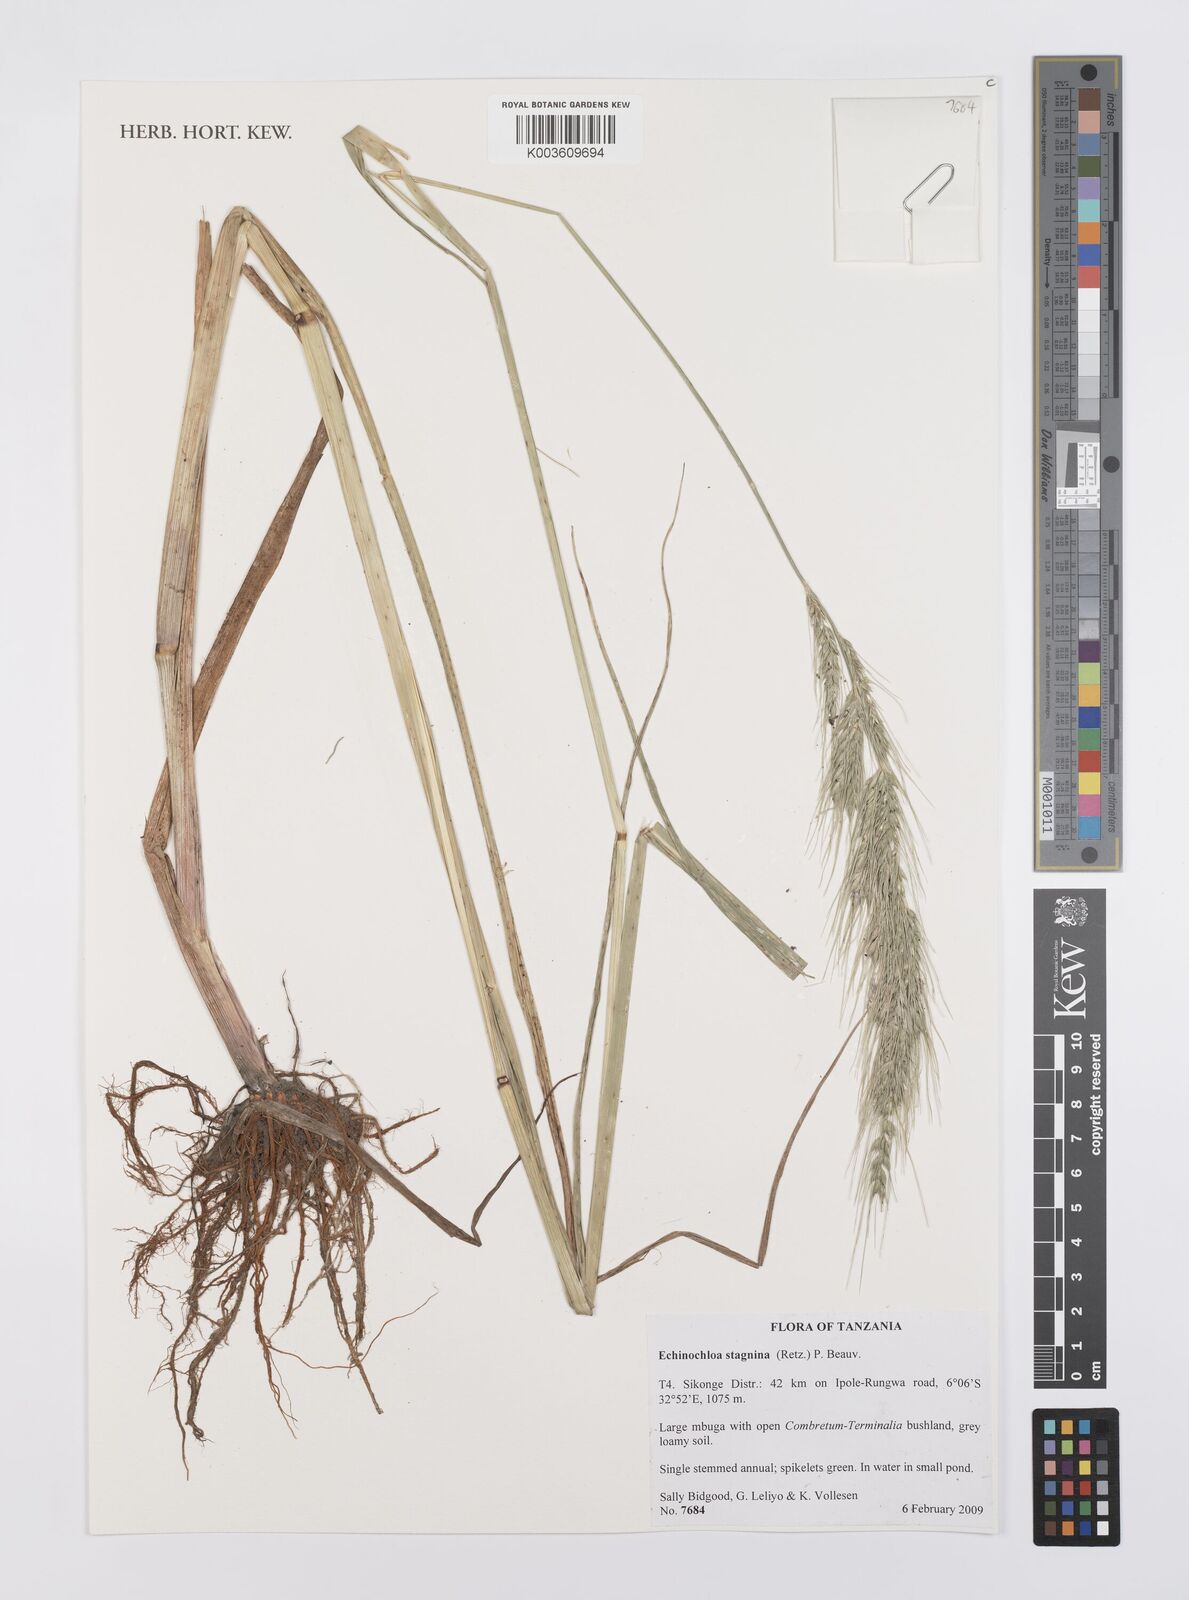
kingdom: Plantae
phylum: Tracheophyta
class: Liliopsida
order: Poales
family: Poaceae
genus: Echinochloa
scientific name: Echinochloa stagnina
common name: Burgu grass
